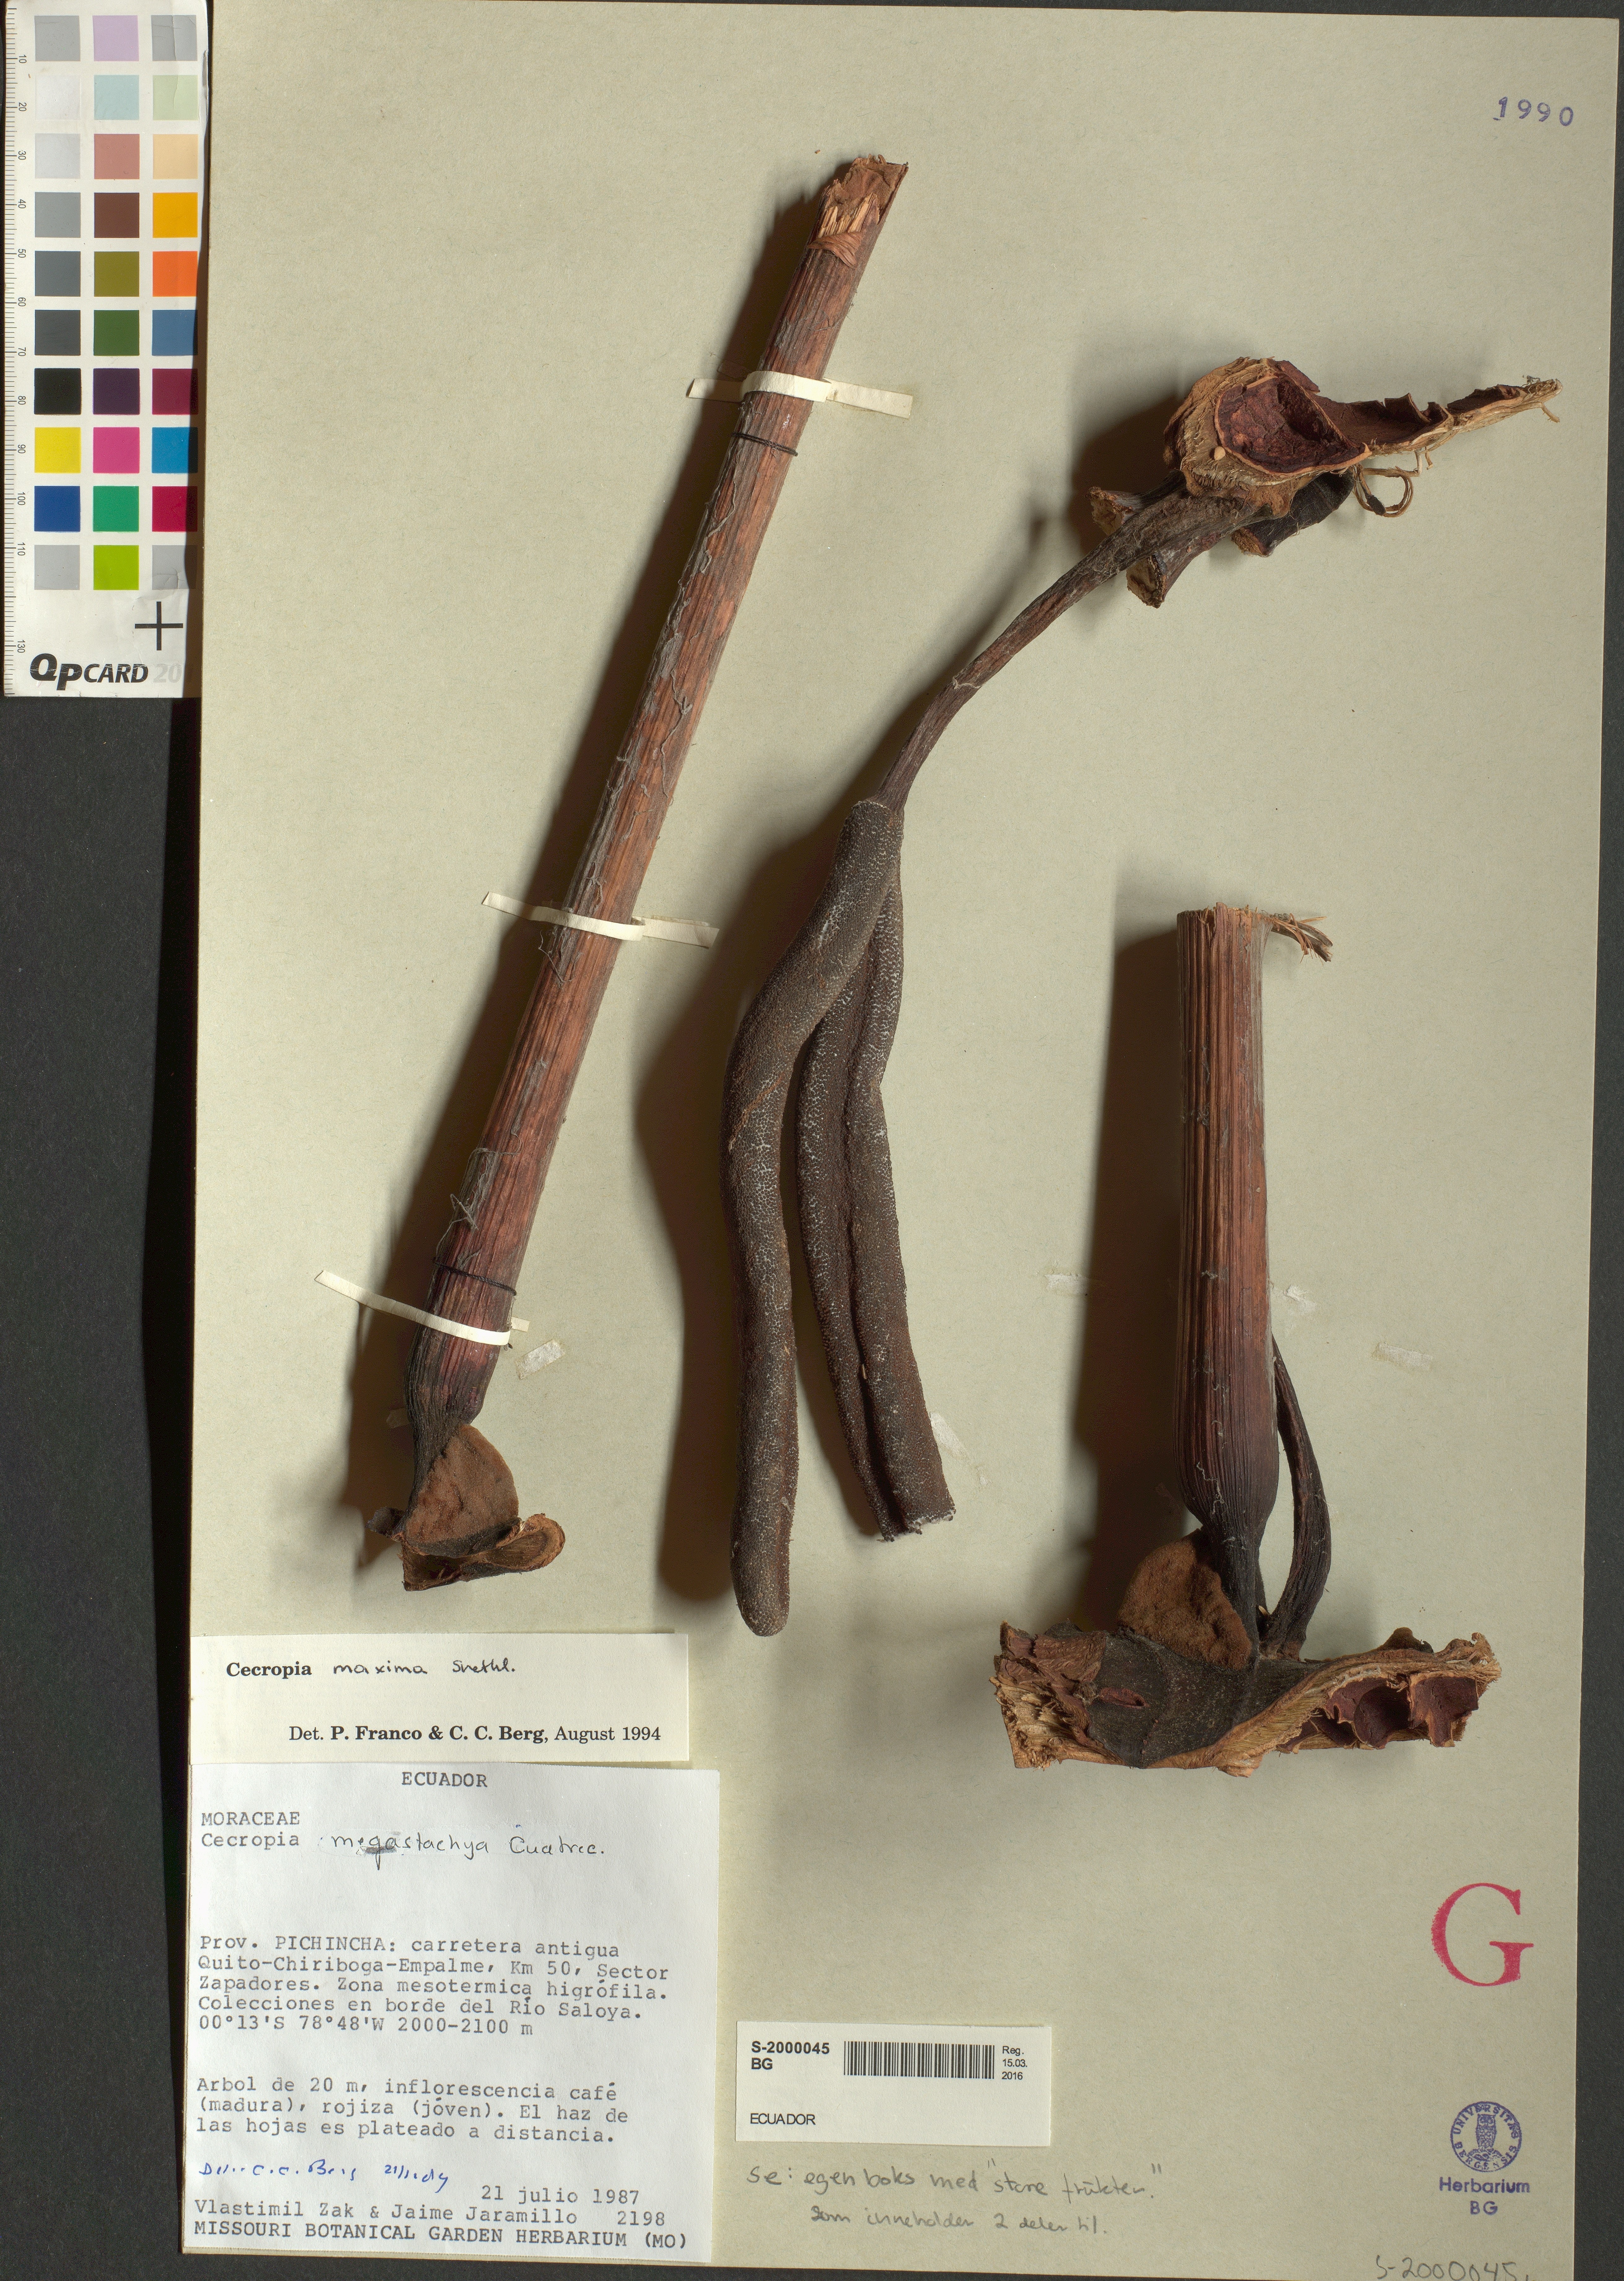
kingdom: Plantae
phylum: Tracheophyta
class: Magnoliopsida
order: Rosales
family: Urticaceae
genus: Cecropia
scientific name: Cecropia maxima
